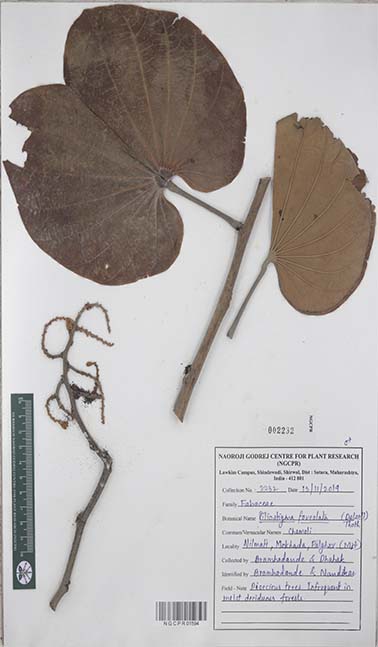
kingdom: Plantae
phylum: Tracheophyta
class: Magnoliopsida
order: Fabales
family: Fabaceae
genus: Piliostigma
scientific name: Piliostigma foveolatum
